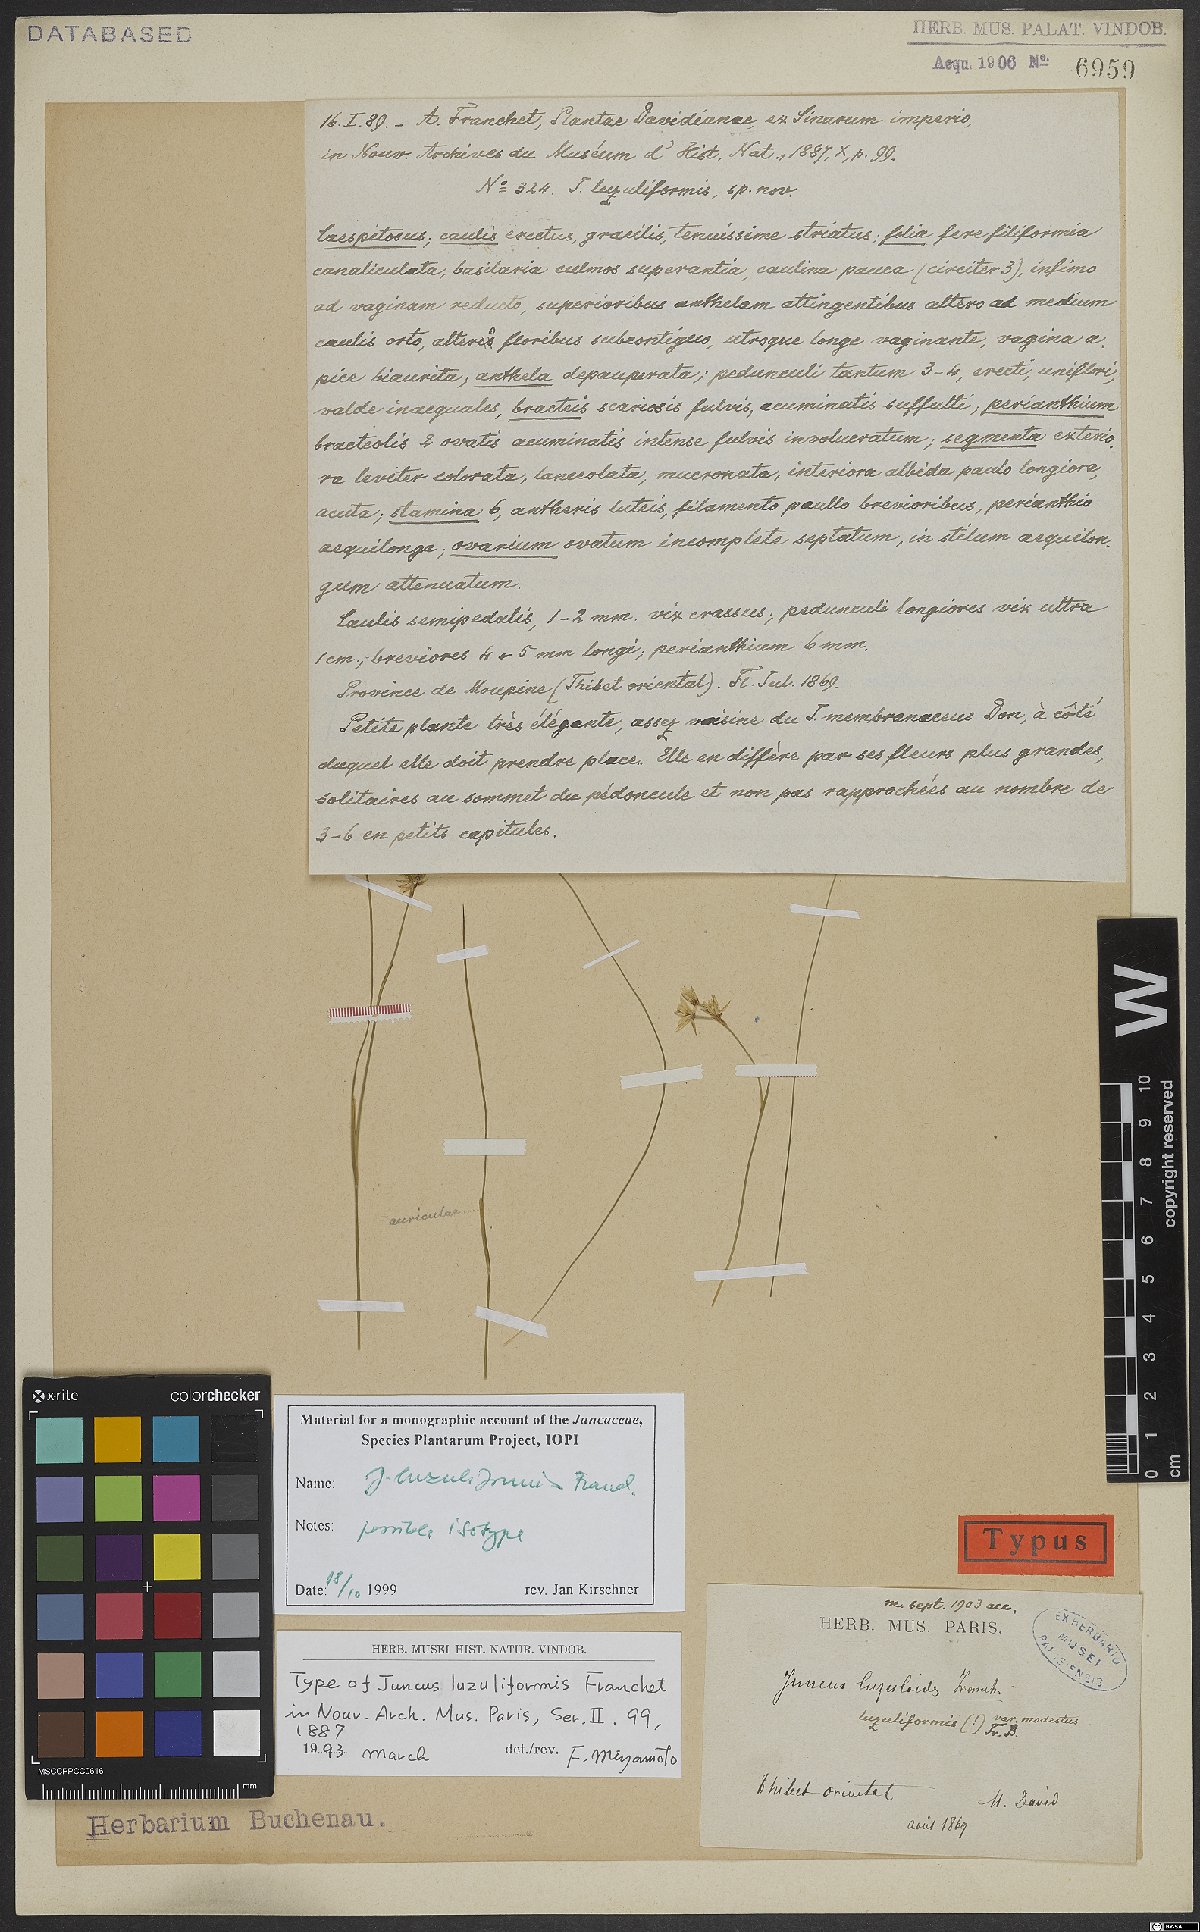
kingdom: Plantae
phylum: Tracheophyta
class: Liliopsida
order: Poales
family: Juncaceae
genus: Juncus
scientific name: Juncus luzuliformis
